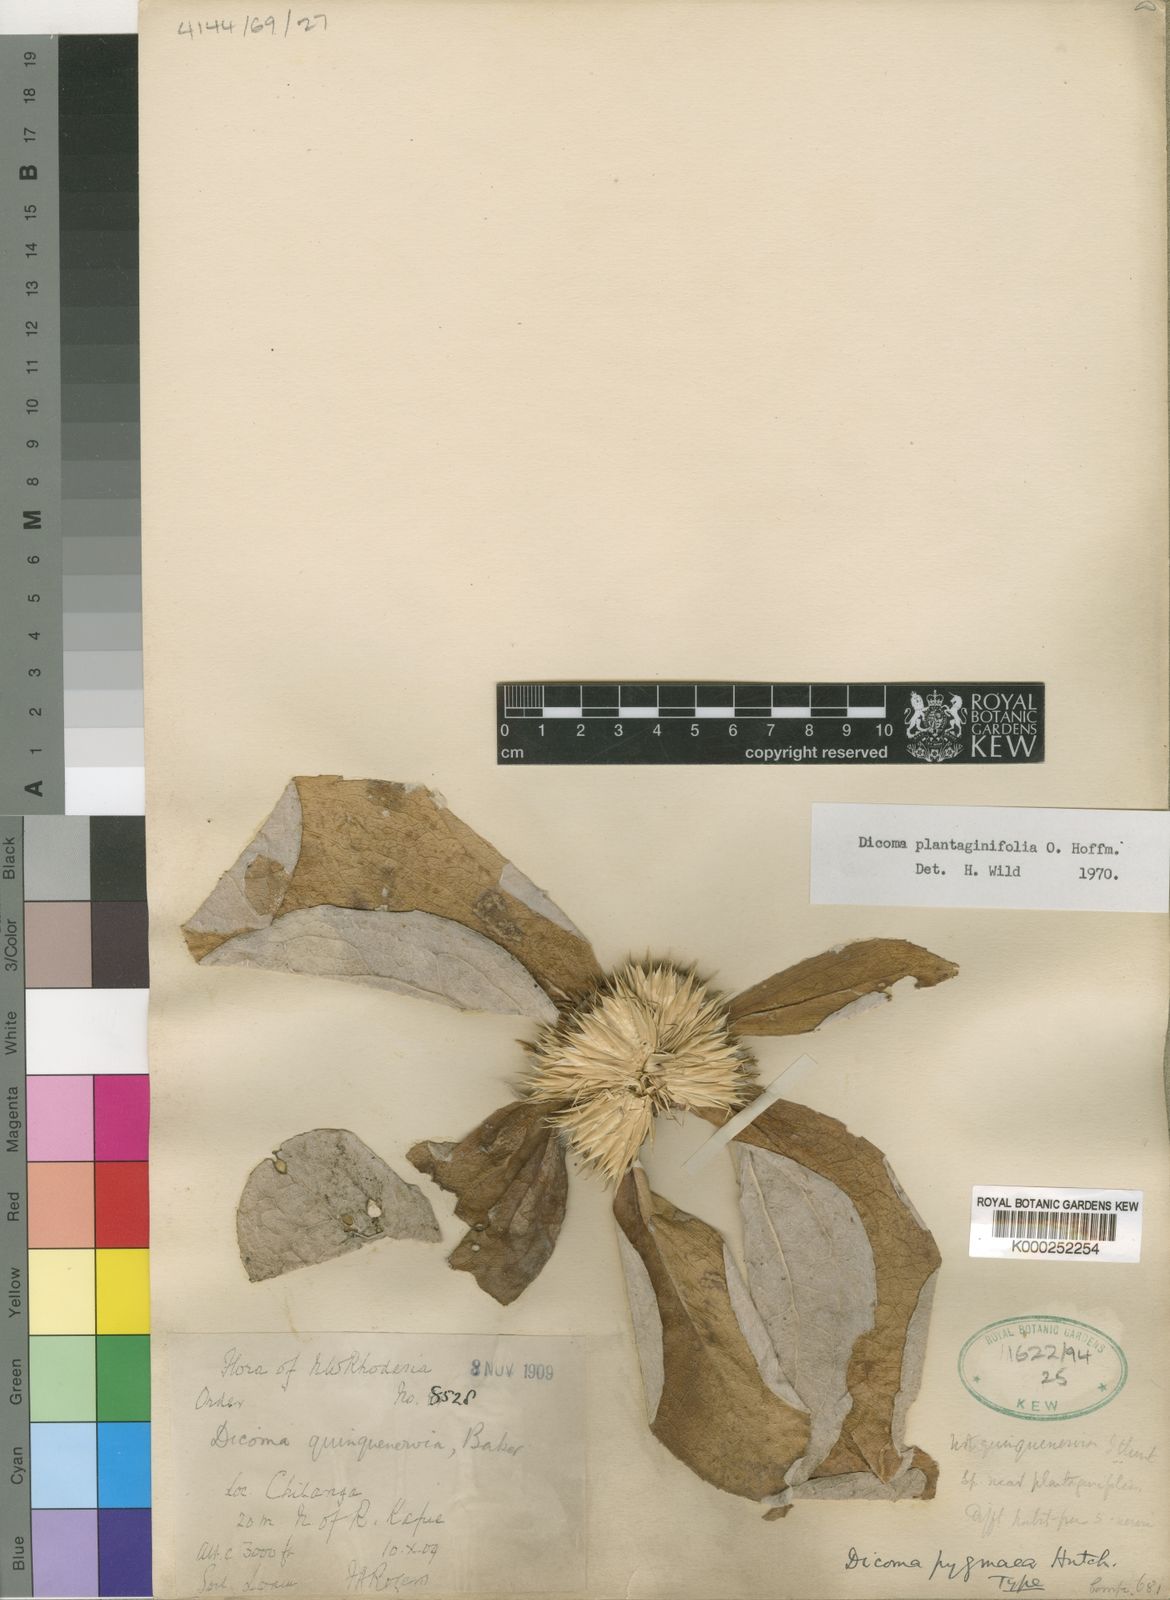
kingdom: Plantae
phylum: Tracheophyta
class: Magnoliopsida
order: Asterales
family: Asteraceae
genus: Macledium
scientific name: Macledium plantaginifolium
